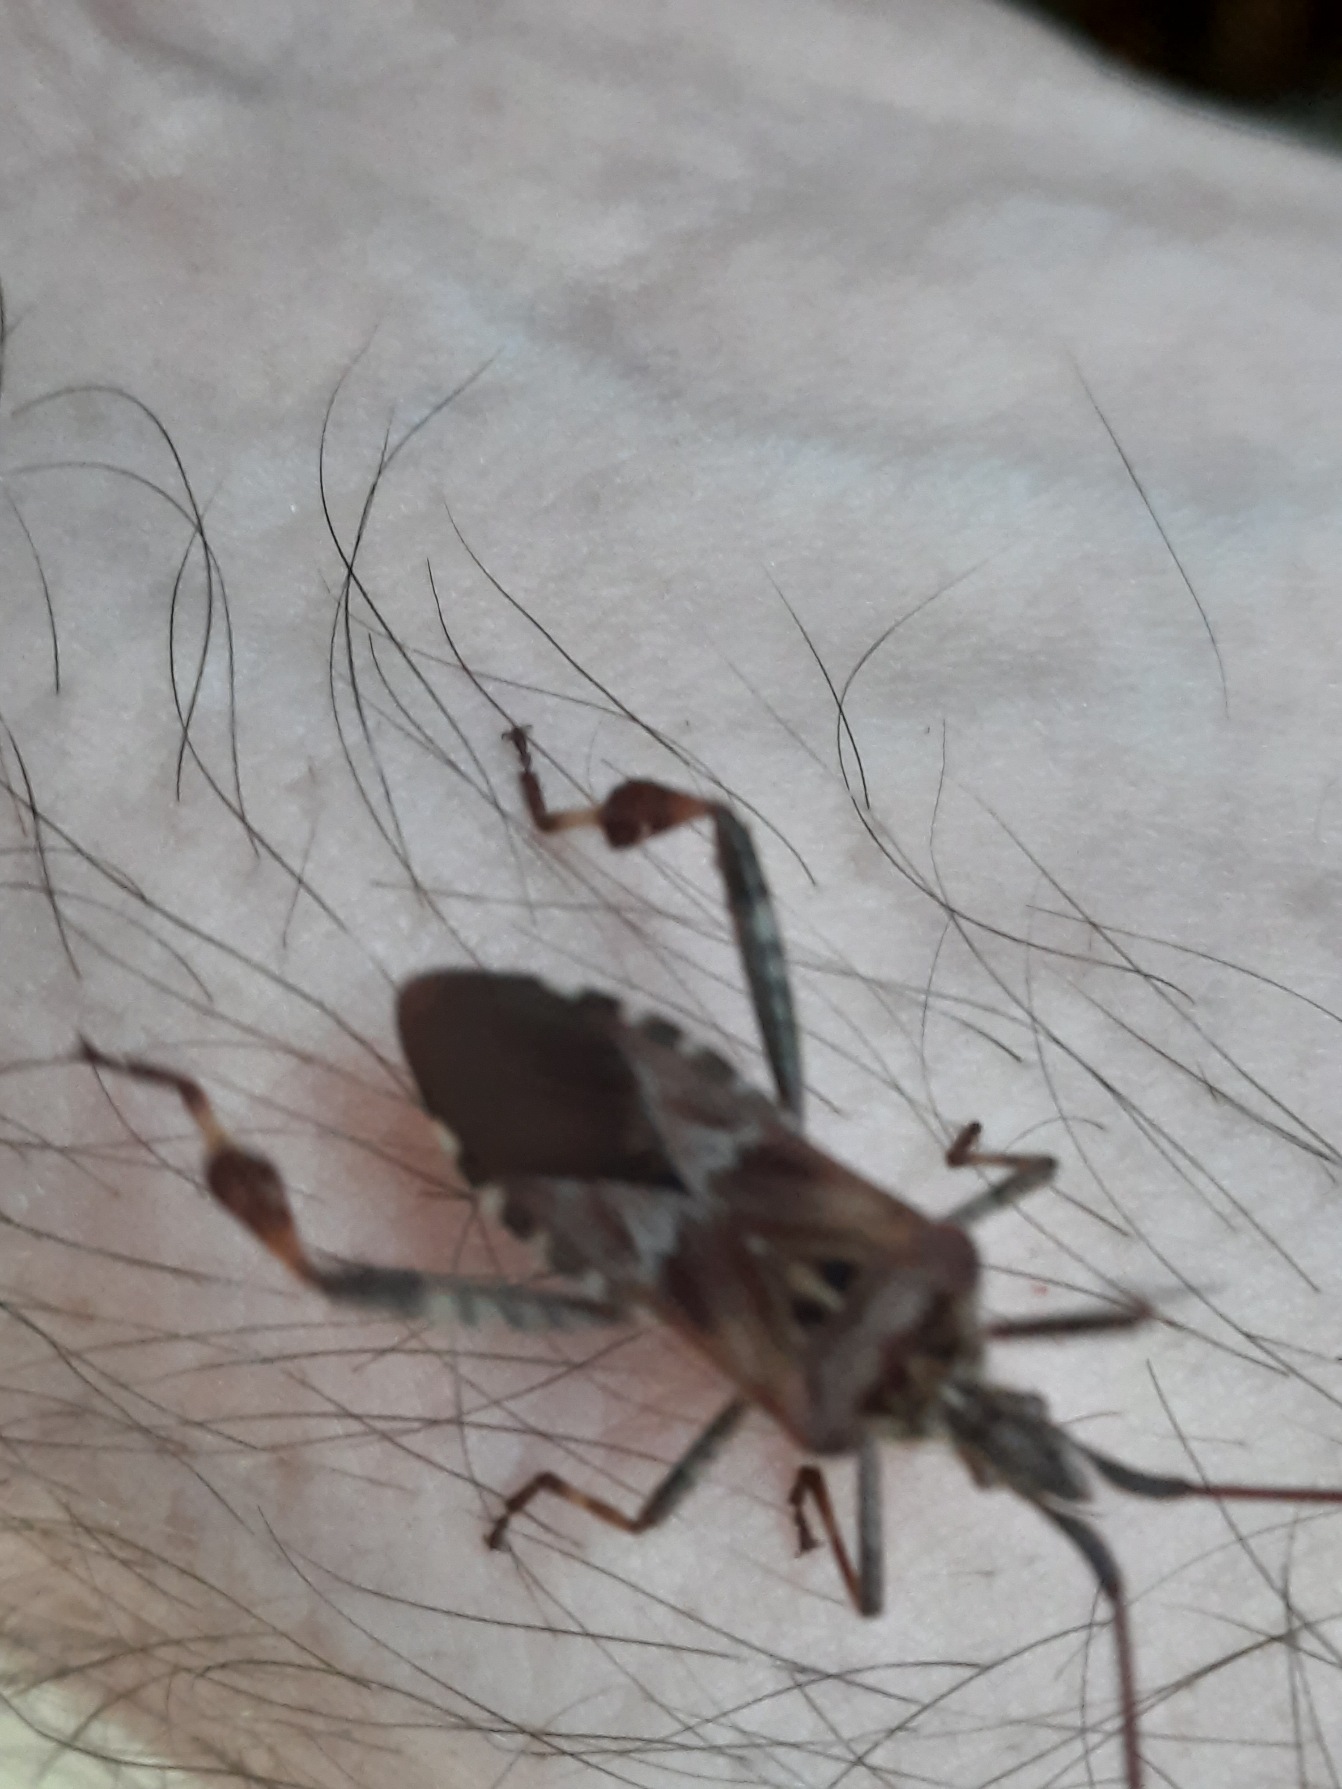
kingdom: Animalia
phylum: Arthropoda
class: Insecta
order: Hemiptera
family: Coreidae
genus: Leptoglossus
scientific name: Leptoglossus occidentalis
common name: Amerikansk fyrretæge
